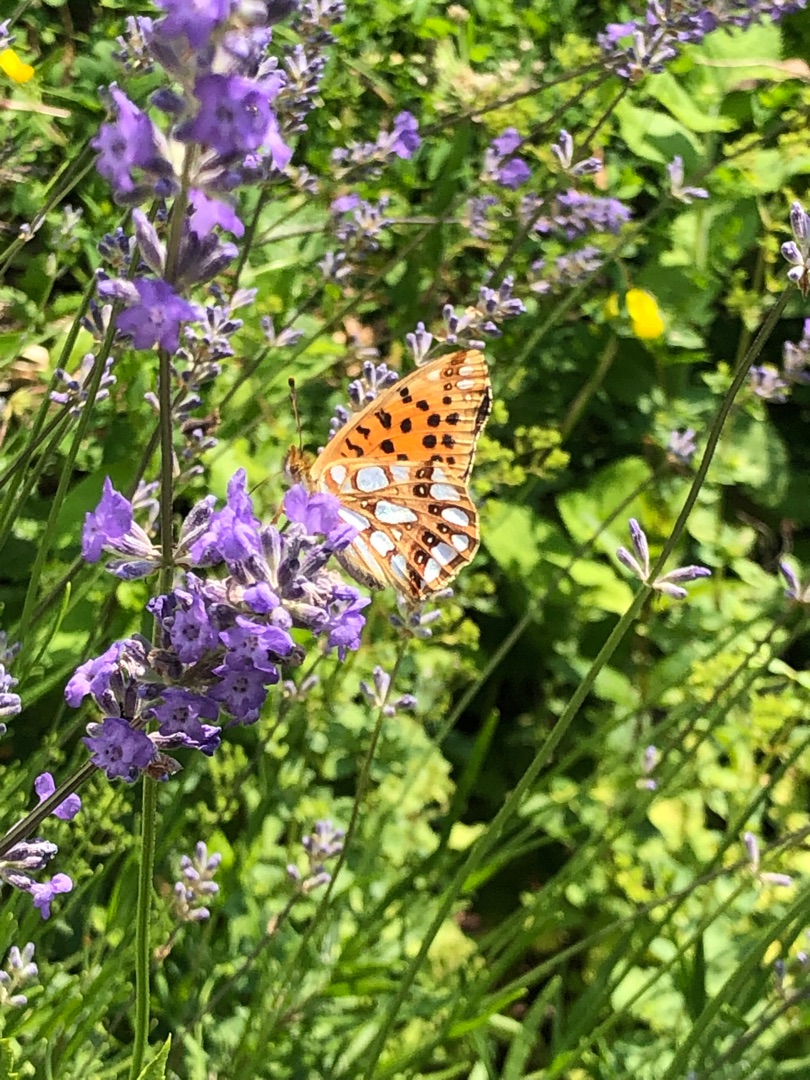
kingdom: Animalia
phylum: Arthropoda
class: Insecta
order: Lepidoptera
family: Nymphalidae
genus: Issoria
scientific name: Issoria lathonia
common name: Storplettet perlemorsommerfugl
